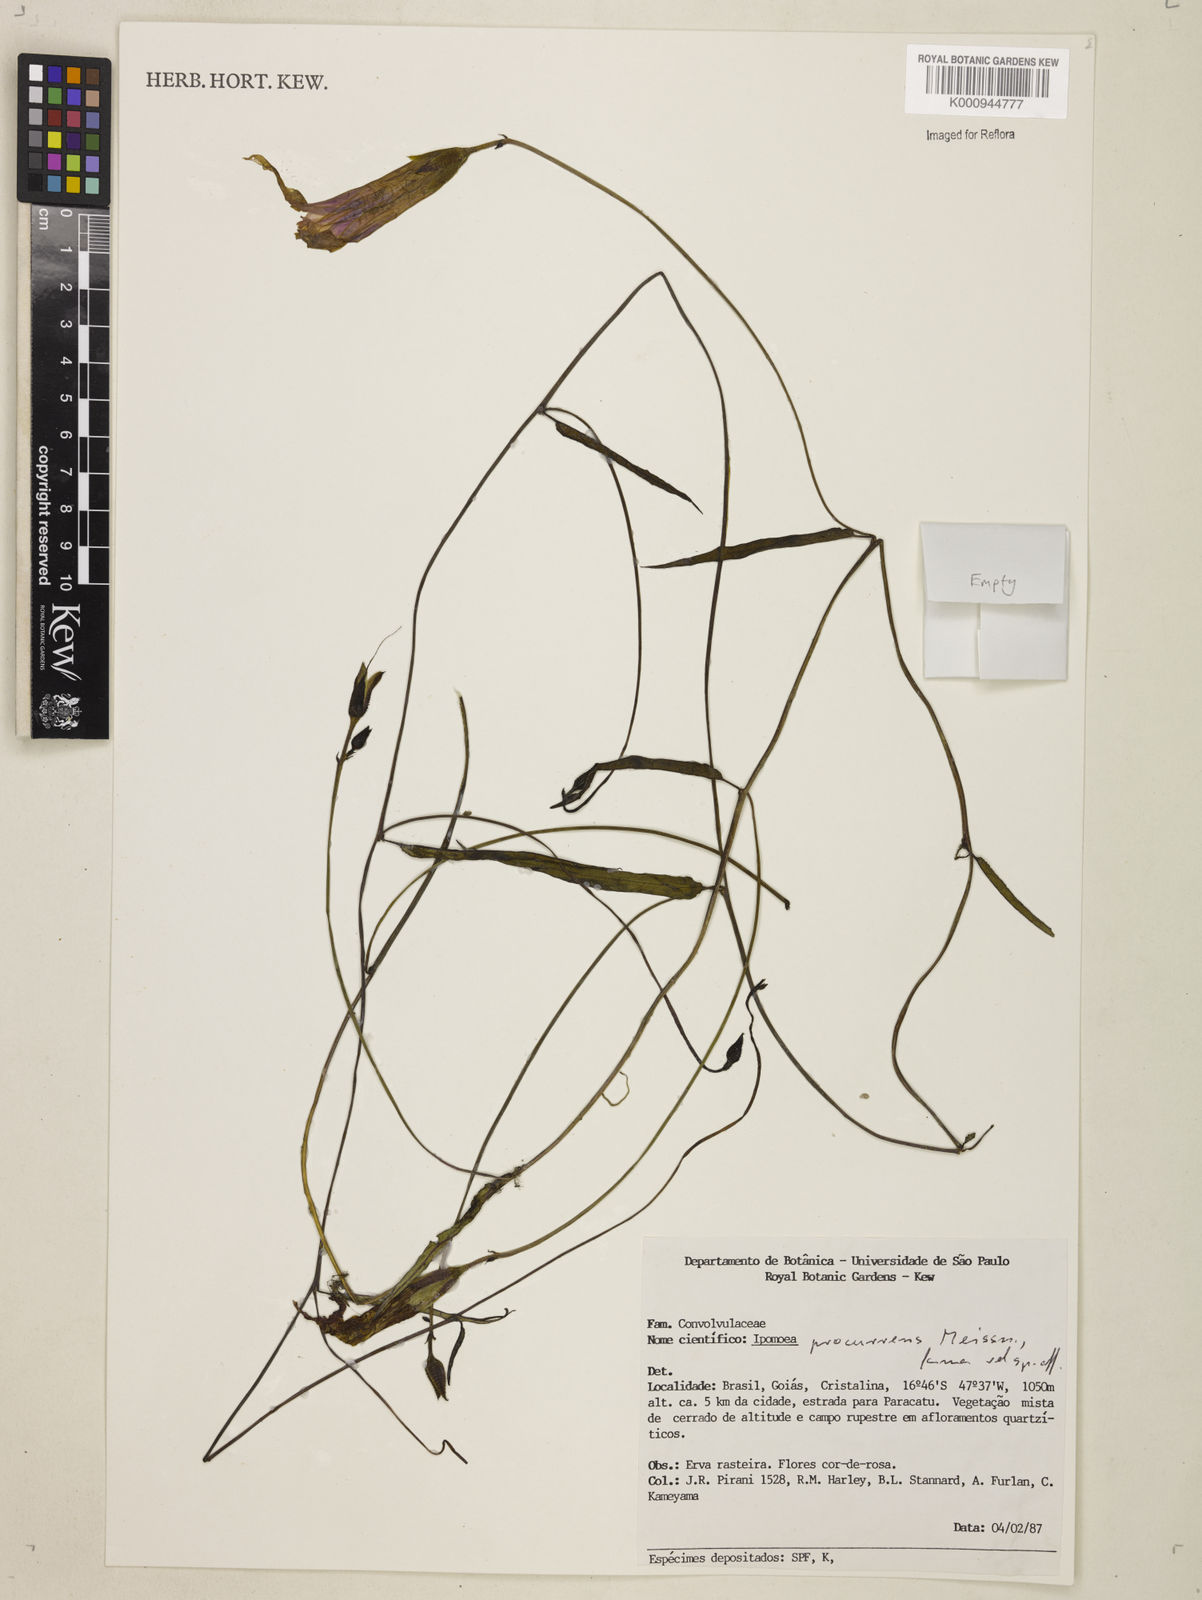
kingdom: Plantae
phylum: Tracheophyta
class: Magnoliopsida
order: Solanales
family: Convolvulaceae
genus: Ipomoea
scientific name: Ipomoea procurrens
